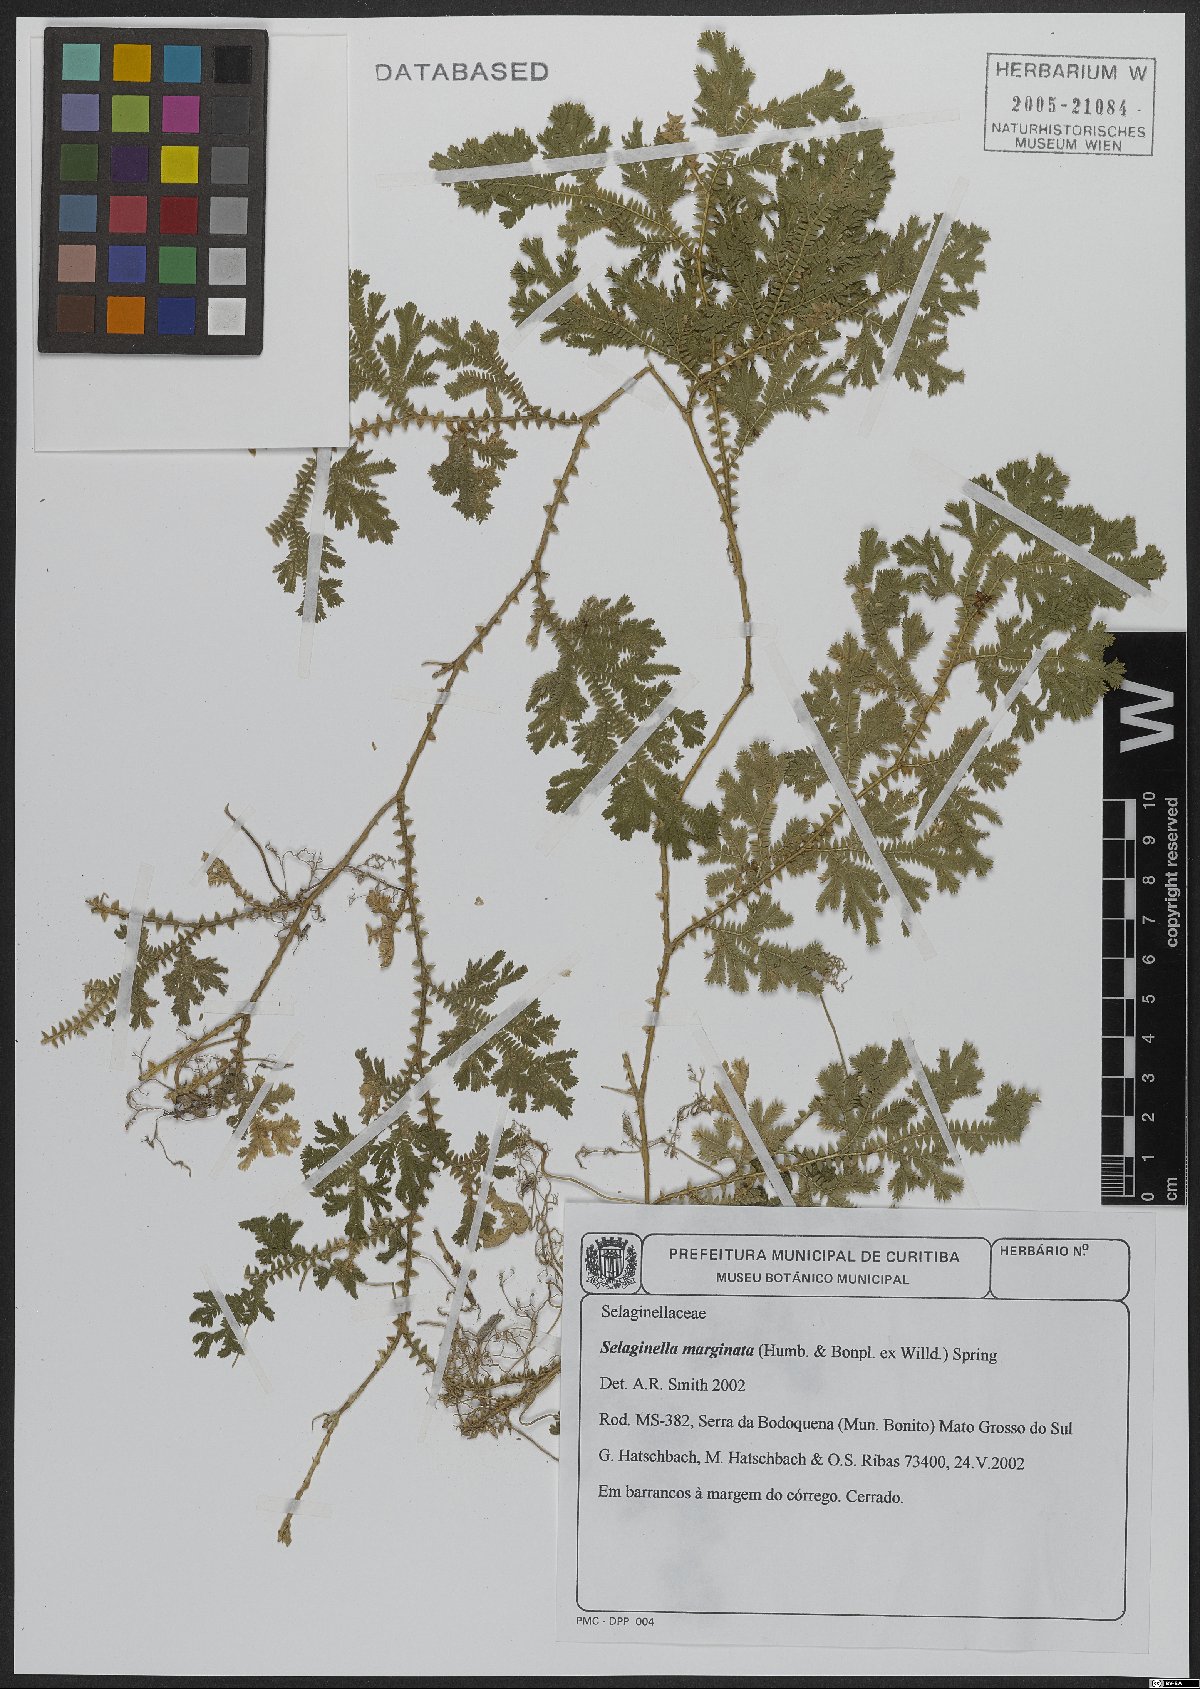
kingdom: Plantae
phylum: Tracheophyta
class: Lycopodiopsida
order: Selaginellales
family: Selaginellaceae
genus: Selaginella
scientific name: Selaginella marginata
